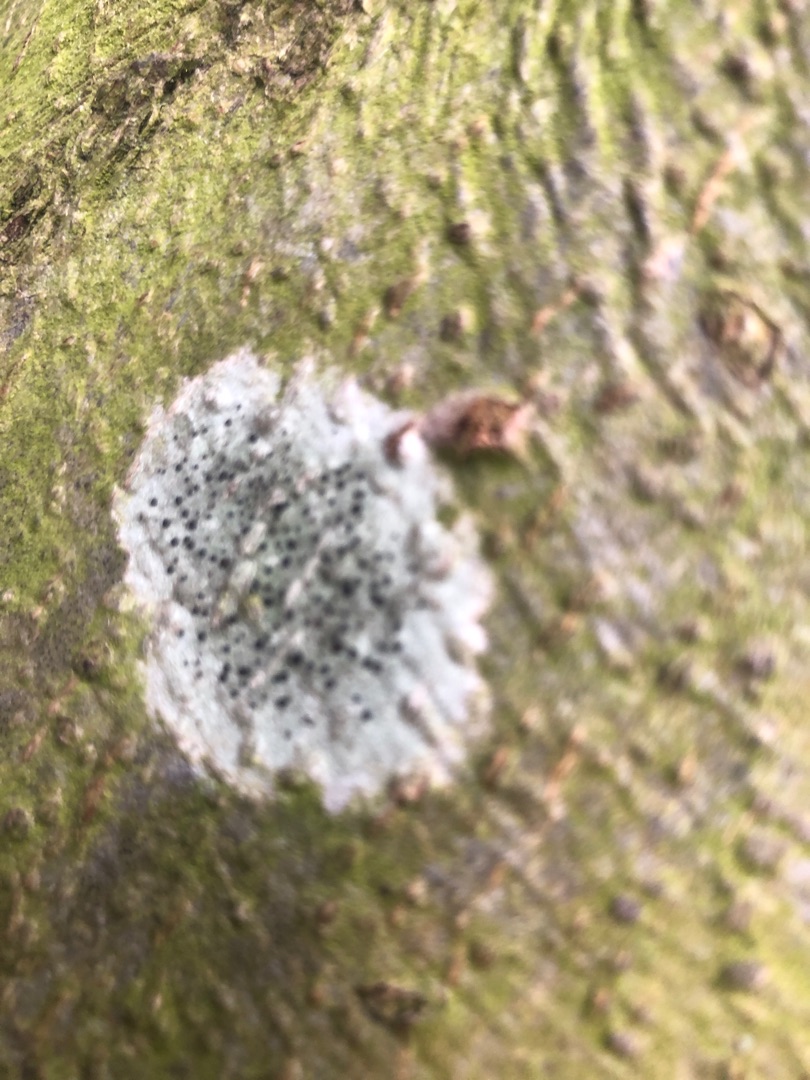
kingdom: Fungi
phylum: Ascomycota
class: Lecanoromycetes
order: Lecanorales
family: Lecanoraceae
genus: Lecidella
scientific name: Lecidella elaeochroma
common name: Grågrøn skivelav
